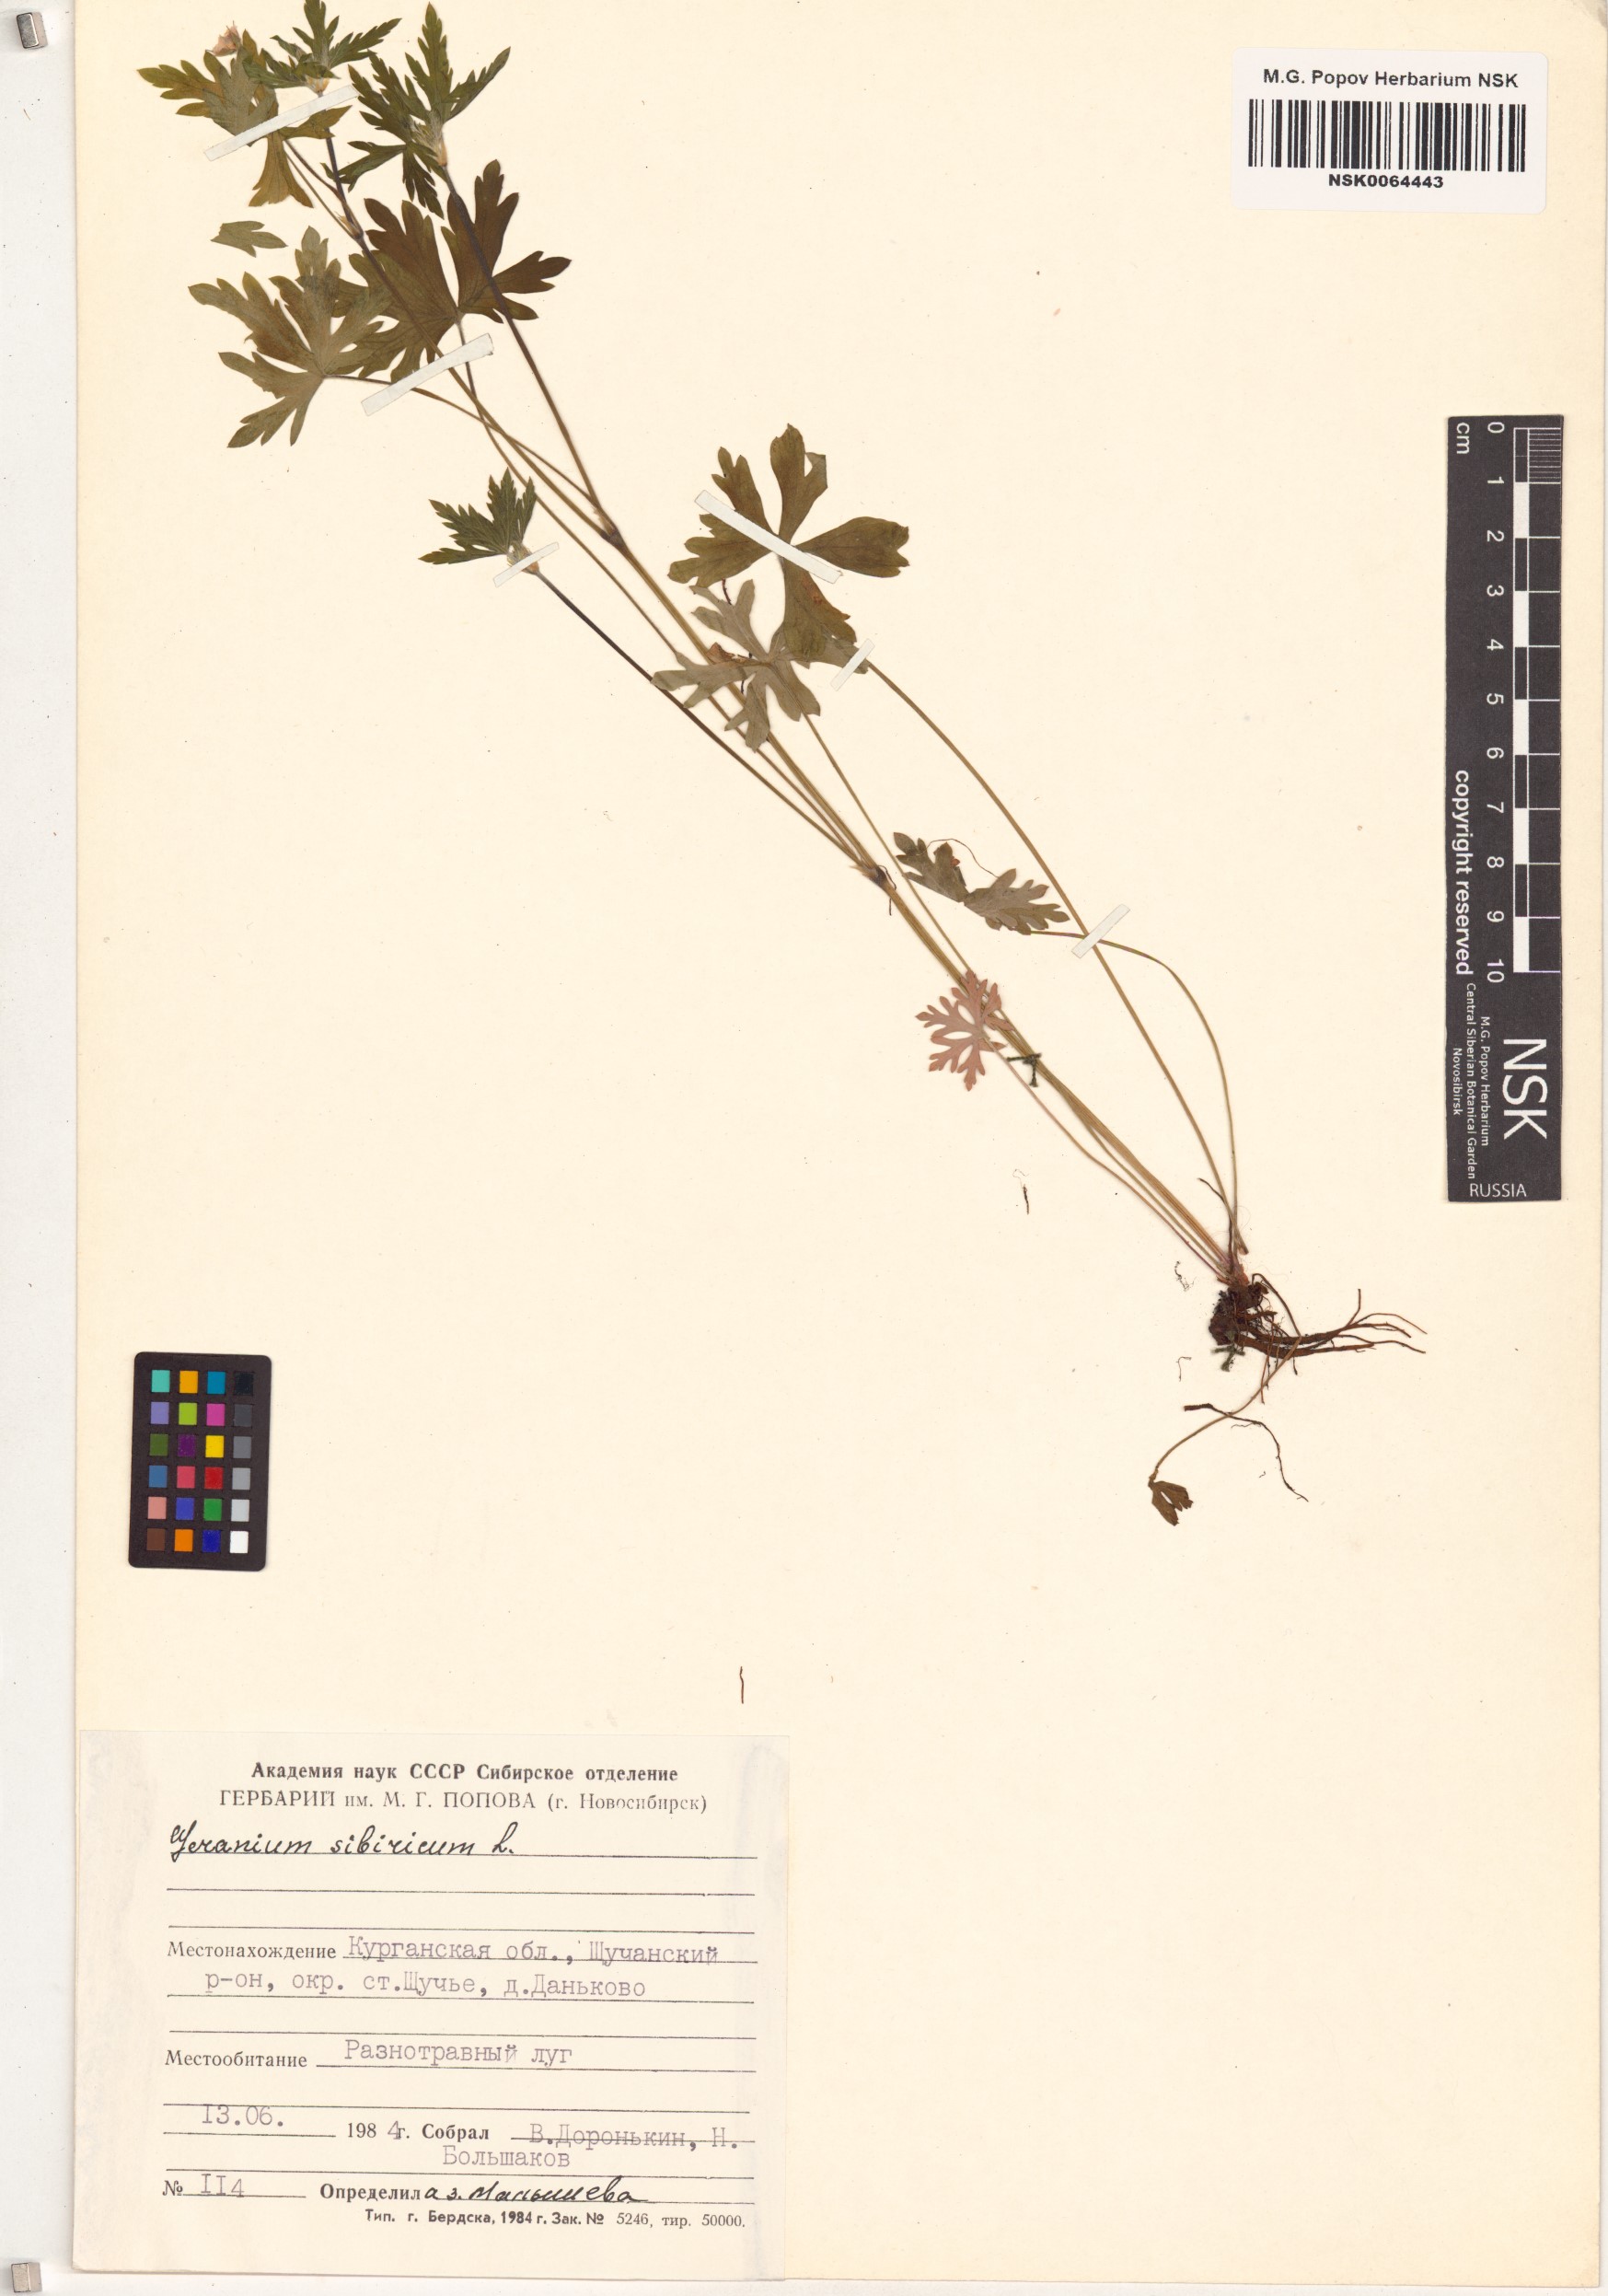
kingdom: Plantae
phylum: Tracheophyta
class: Magnoliopsida
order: Geraniales
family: Geraniaceae
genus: Geranium
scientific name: Geranium sibiricum
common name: Siberian crane's-bill
